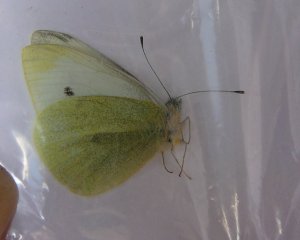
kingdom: Animalia
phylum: Arthropoda
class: Insecta
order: Lepidoptera
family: Pieridae
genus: Pieris
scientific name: Pieris rapae
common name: Cabbage White
